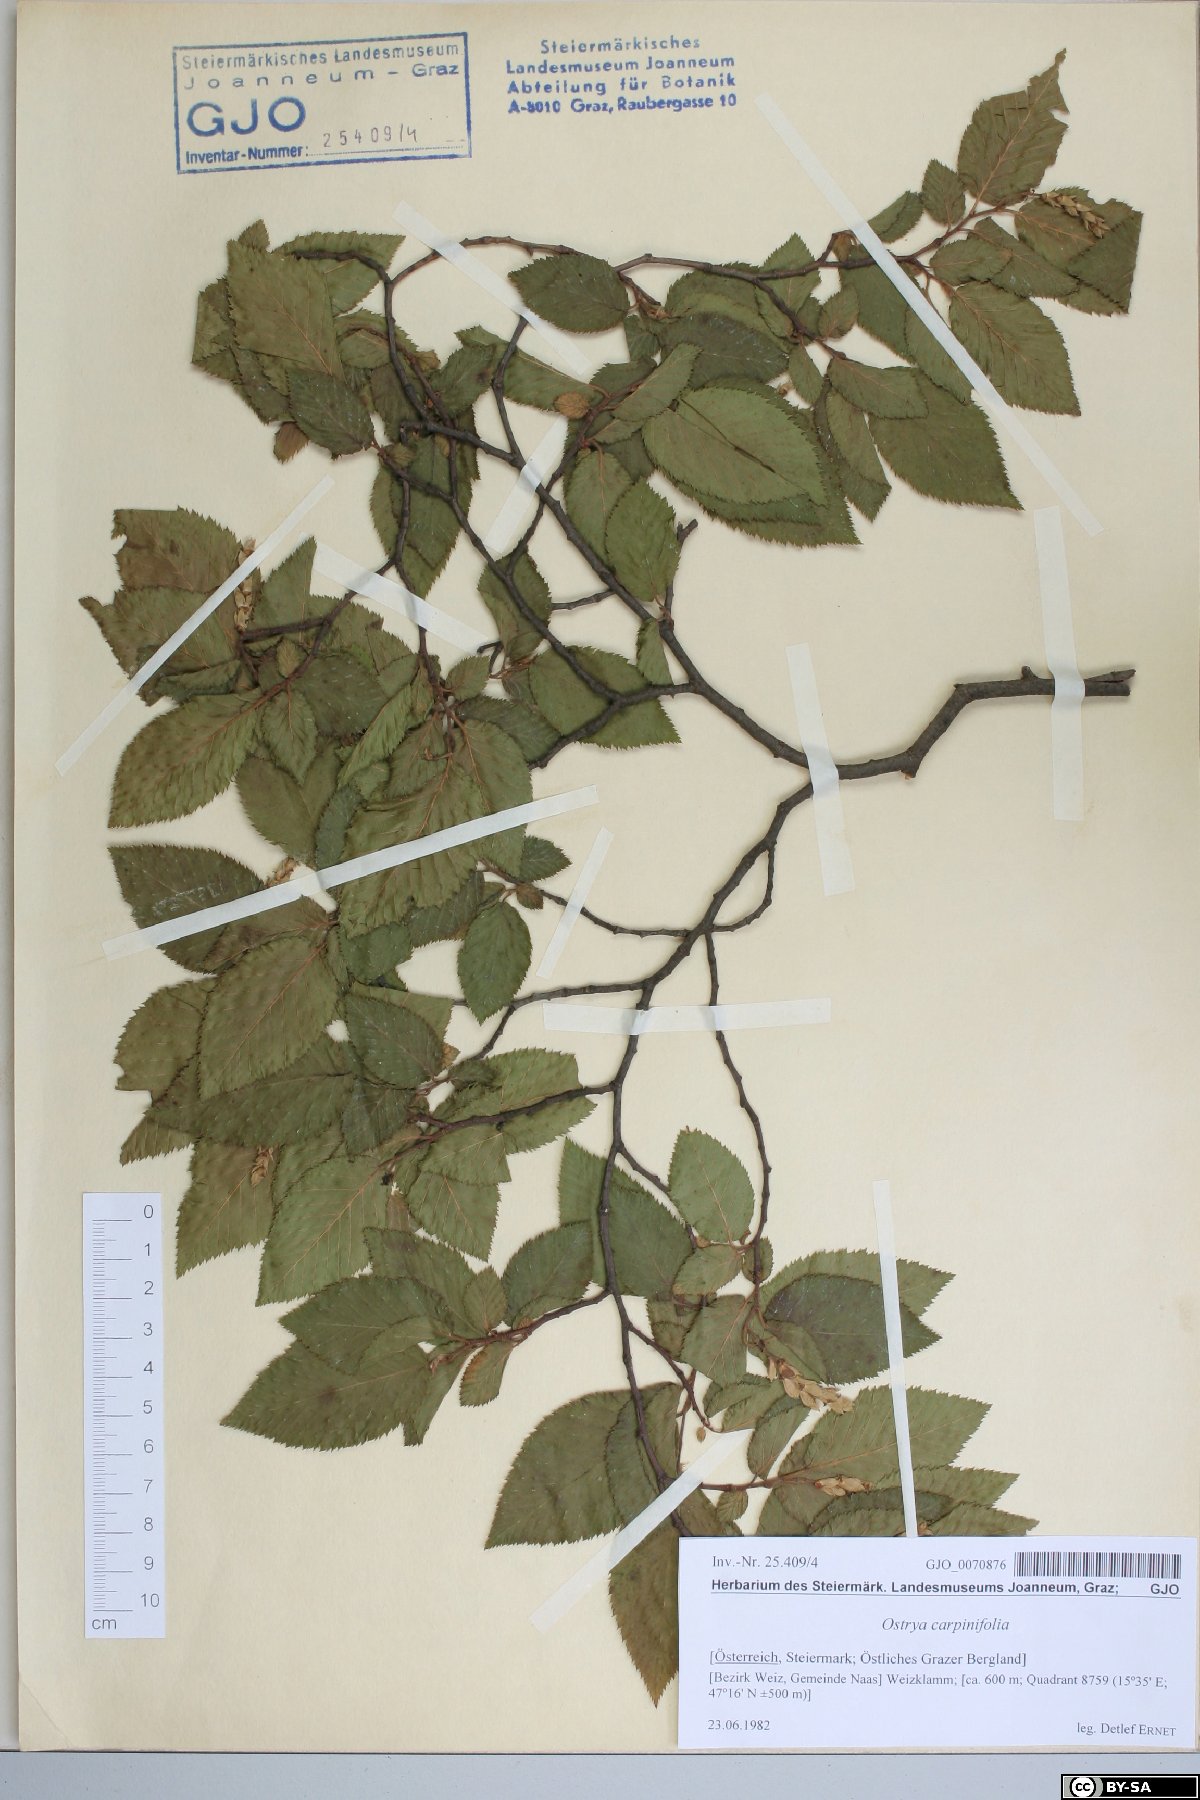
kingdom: Plantae
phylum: Tracheophyta
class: Magnoliopsida
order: Fagales
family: Betulaceae
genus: Ostrya
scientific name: Ostrya carpinifolia
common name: European hop-hornbeam
